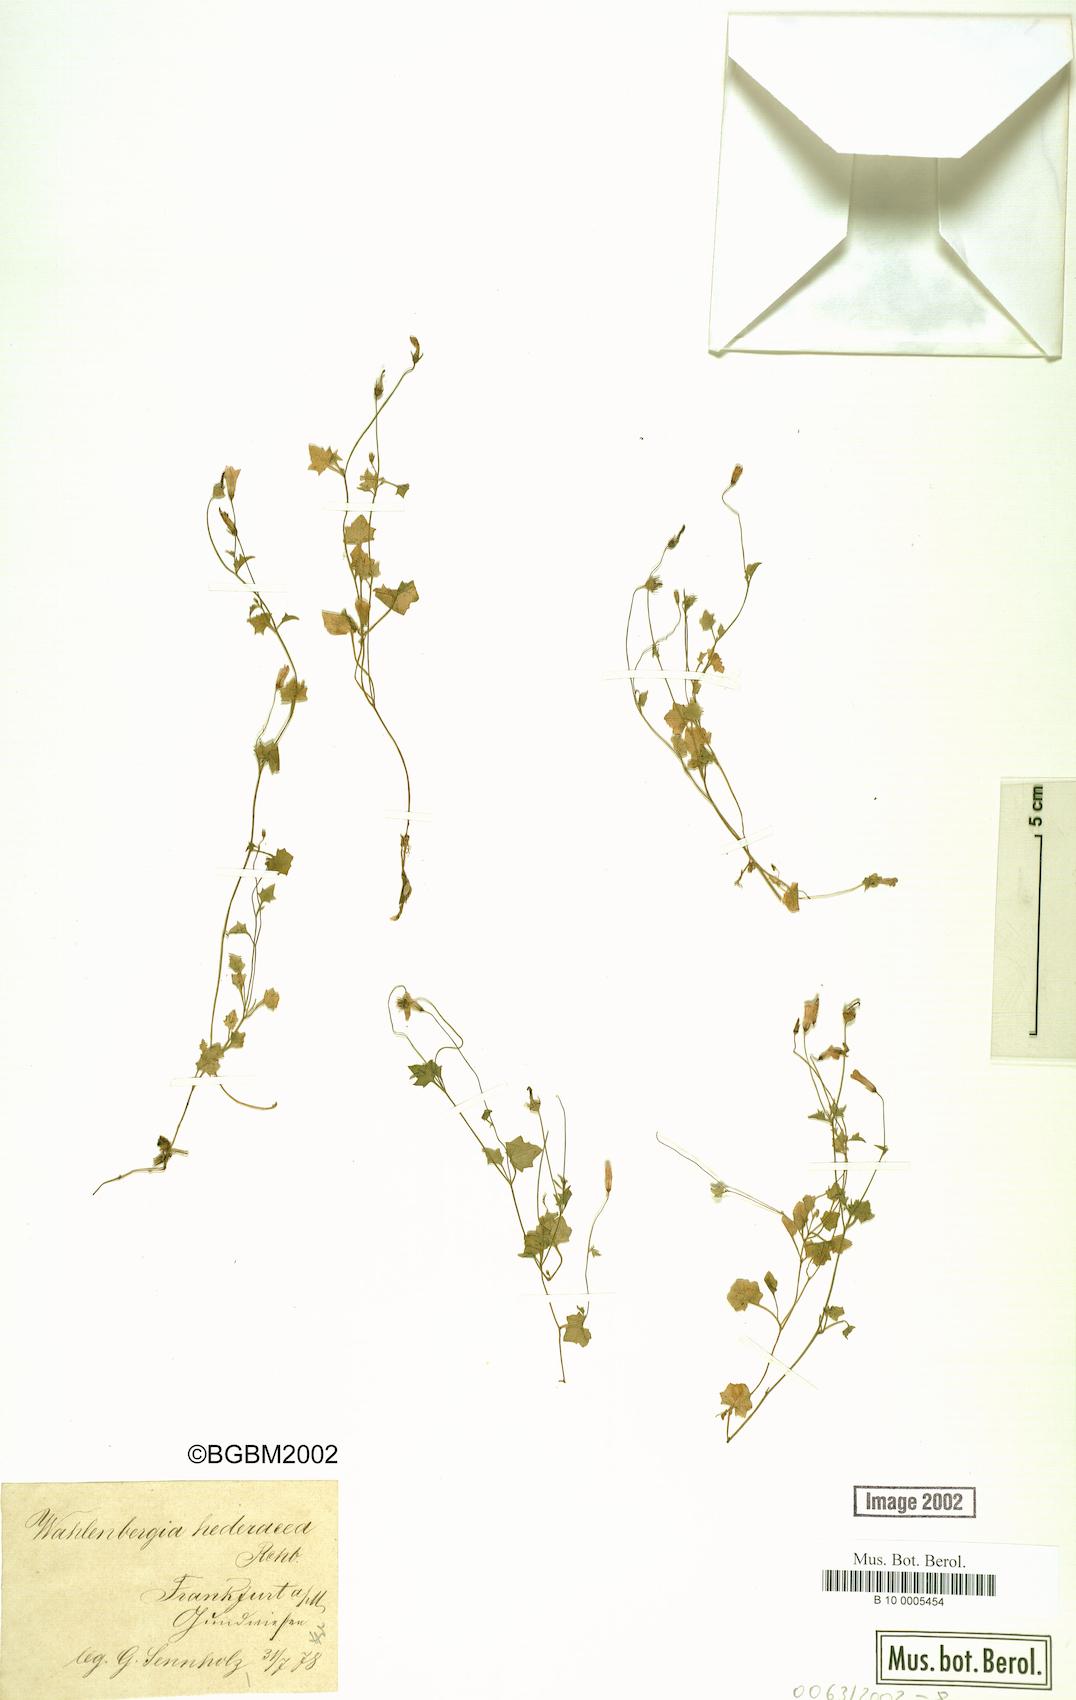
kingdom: Plantae
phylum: Tracheophyta
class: Magnoliopsida
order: Asterales
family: Campanulaceae
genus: Hesperocodon
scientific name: Hesperocodon hederaceus
